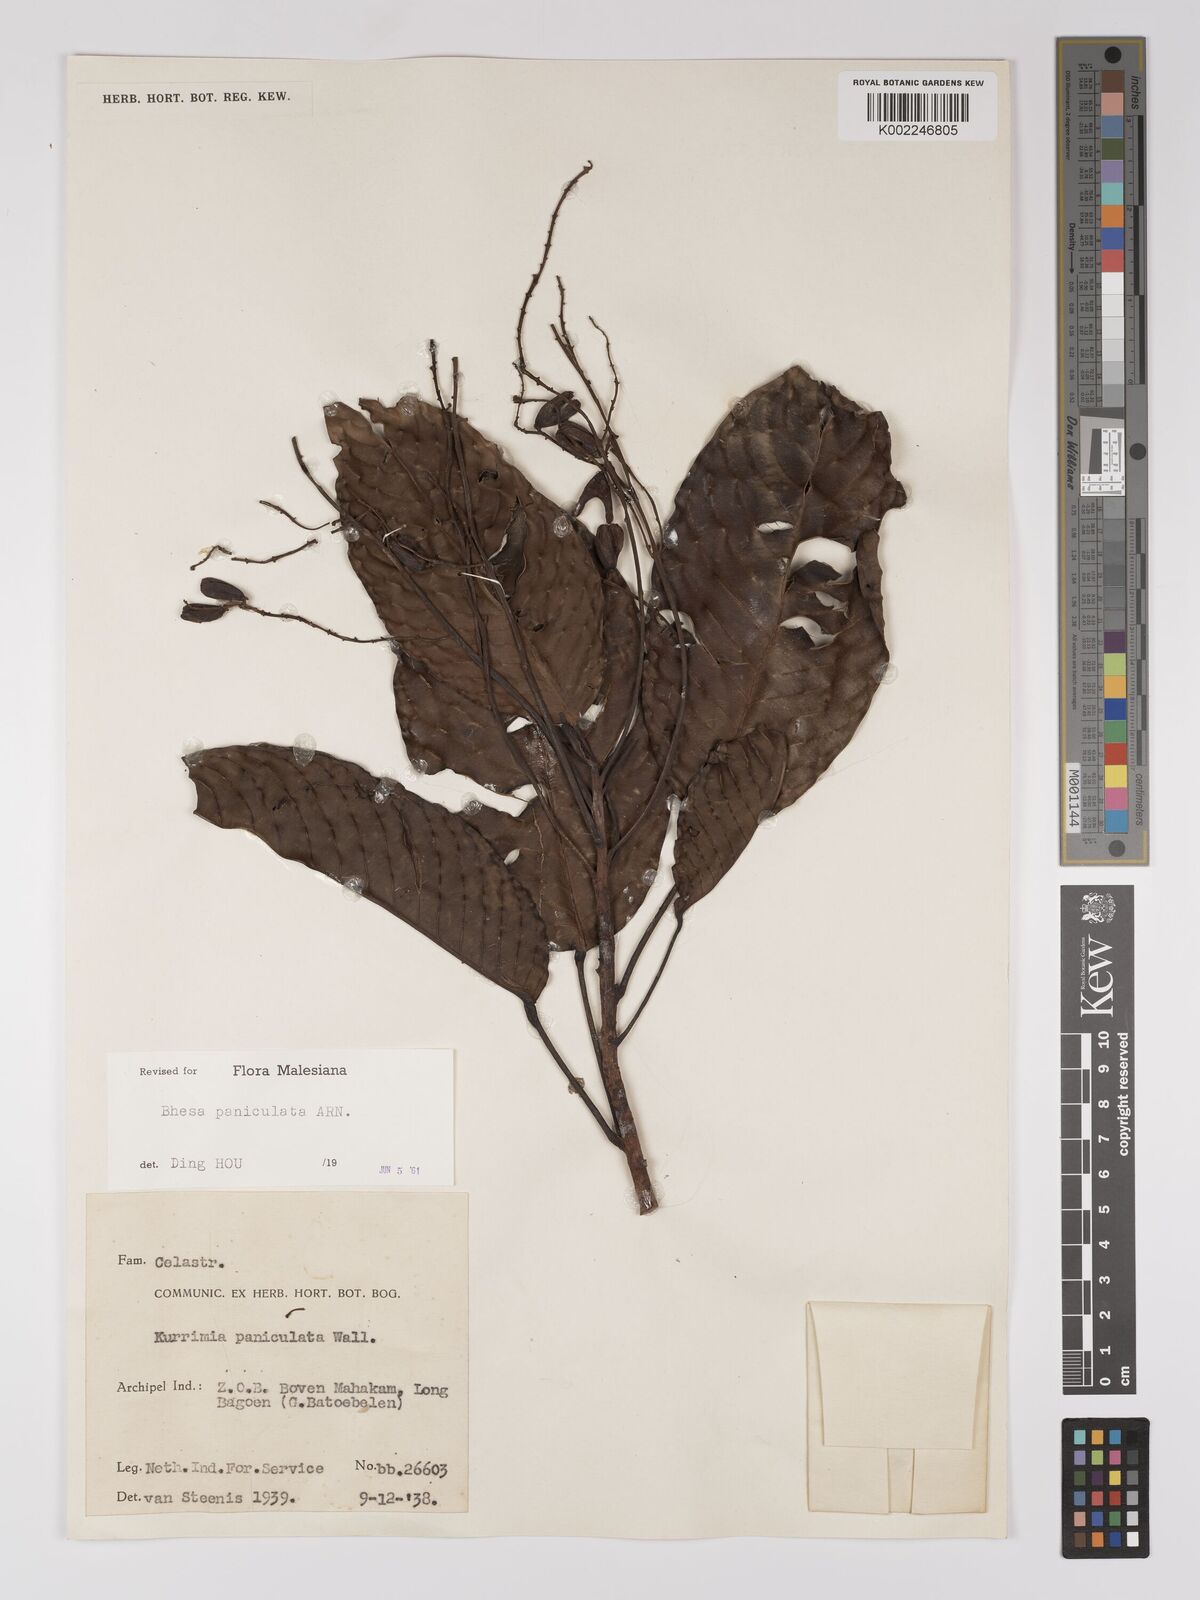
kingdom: Plantae
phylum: Tracheophyta
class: Magnoliopsida
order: Malpighiales
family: Centroplacaceae
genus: Bhesa
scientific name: Bhesa paniculata
